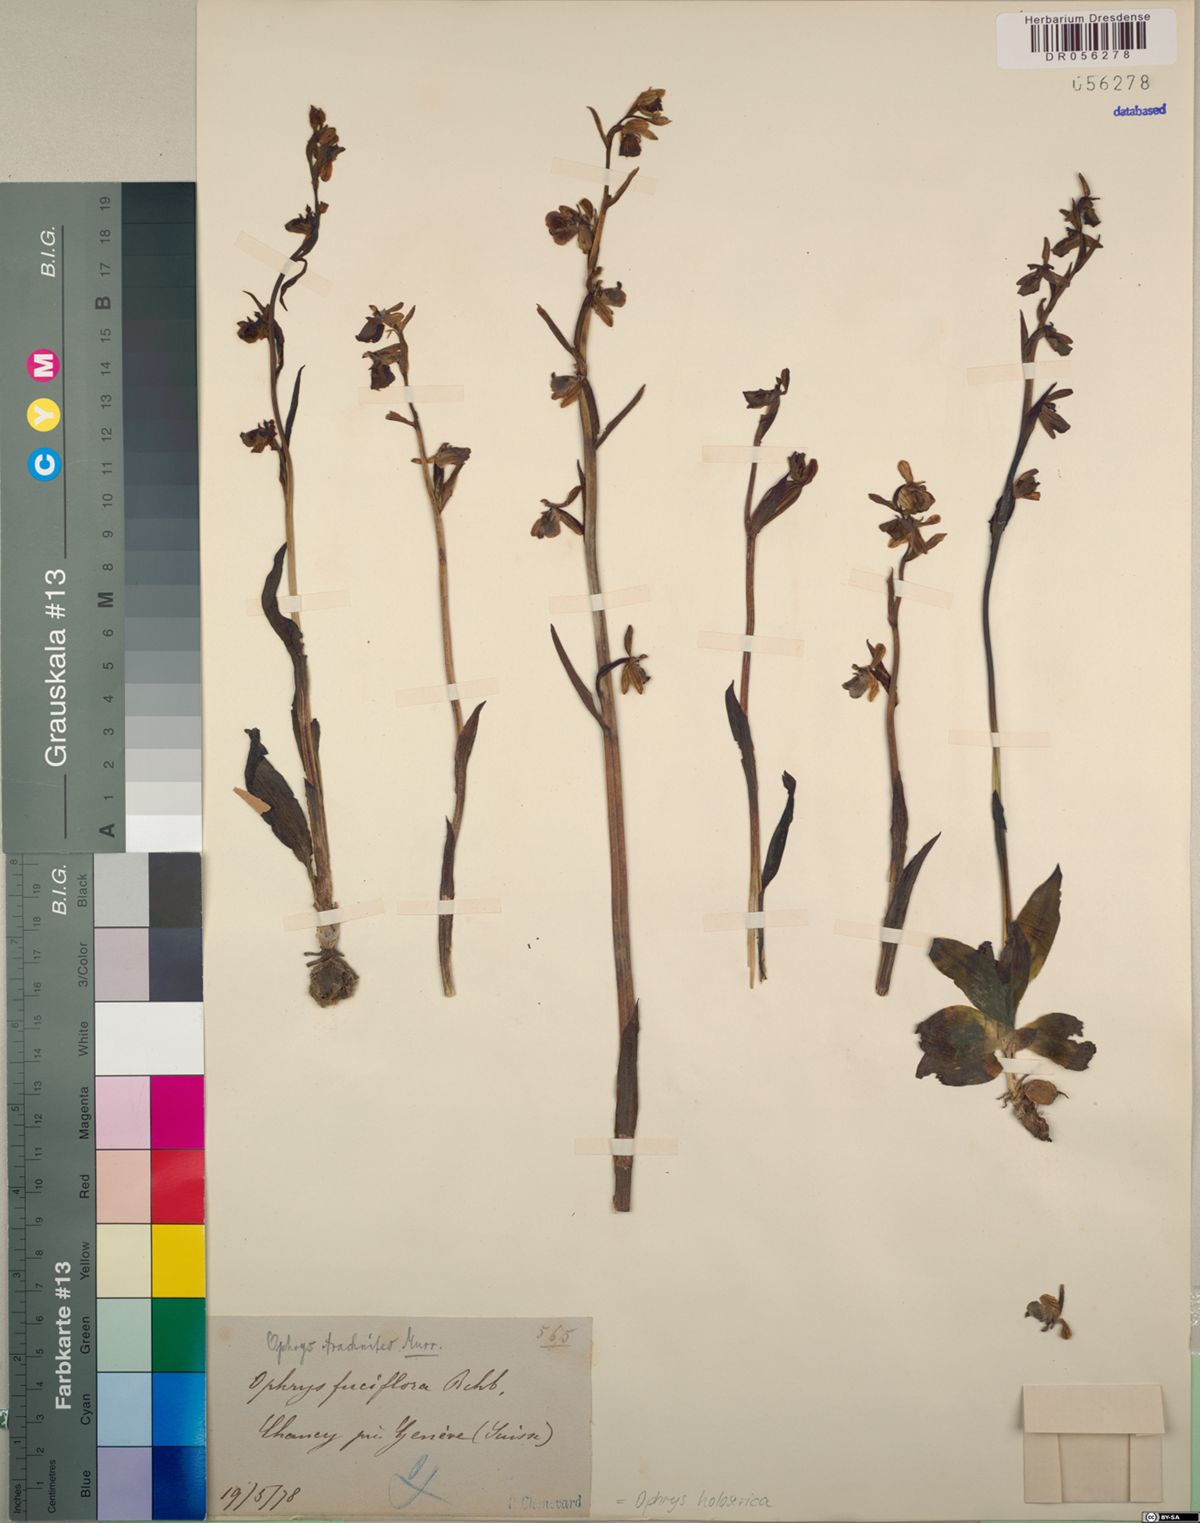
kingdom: Plantae
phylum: Tracheophyta
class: Liliopsida
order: Asparagales
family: Orchidaceae
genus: Ophrys
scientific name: Ophrys holosericea
